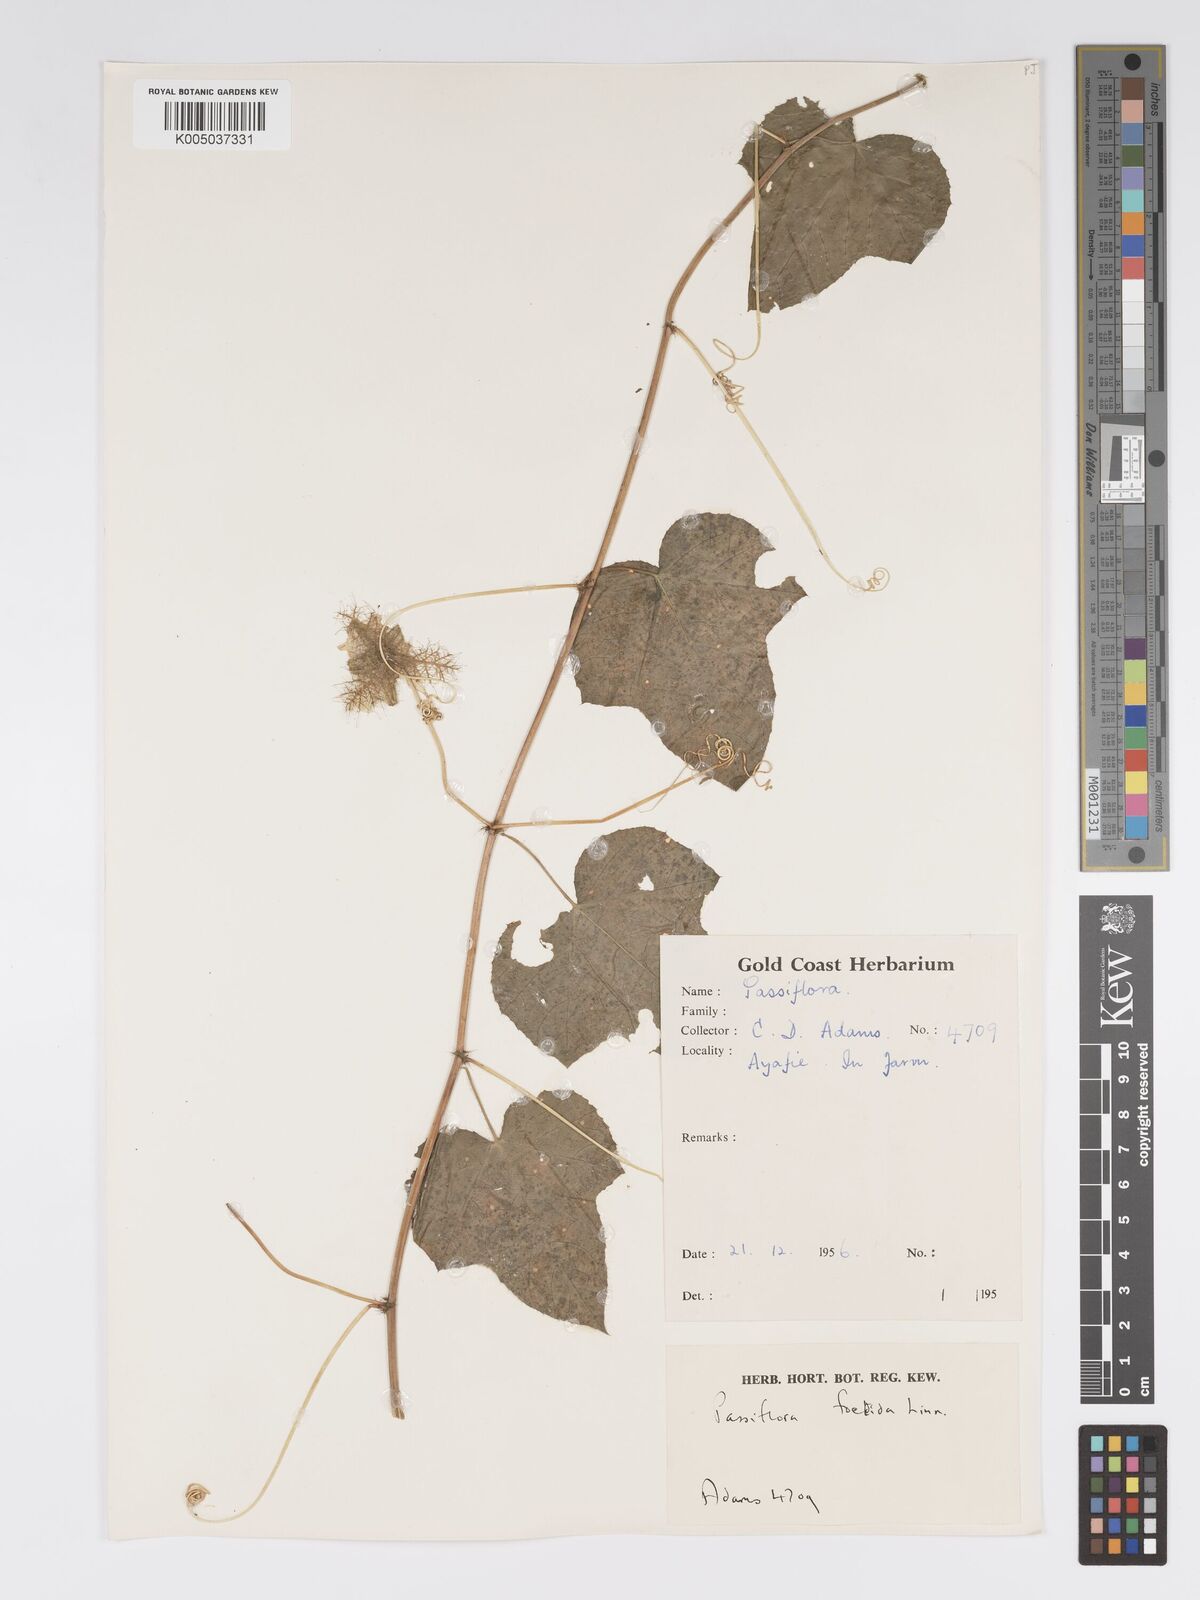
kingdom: Plantae
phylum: Tracheophyta
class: Magnoliopsida
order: Malpighiales
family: Passifloraceae
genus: Passiflora
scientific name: Passiflora foetida
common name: Fetid passionflower
